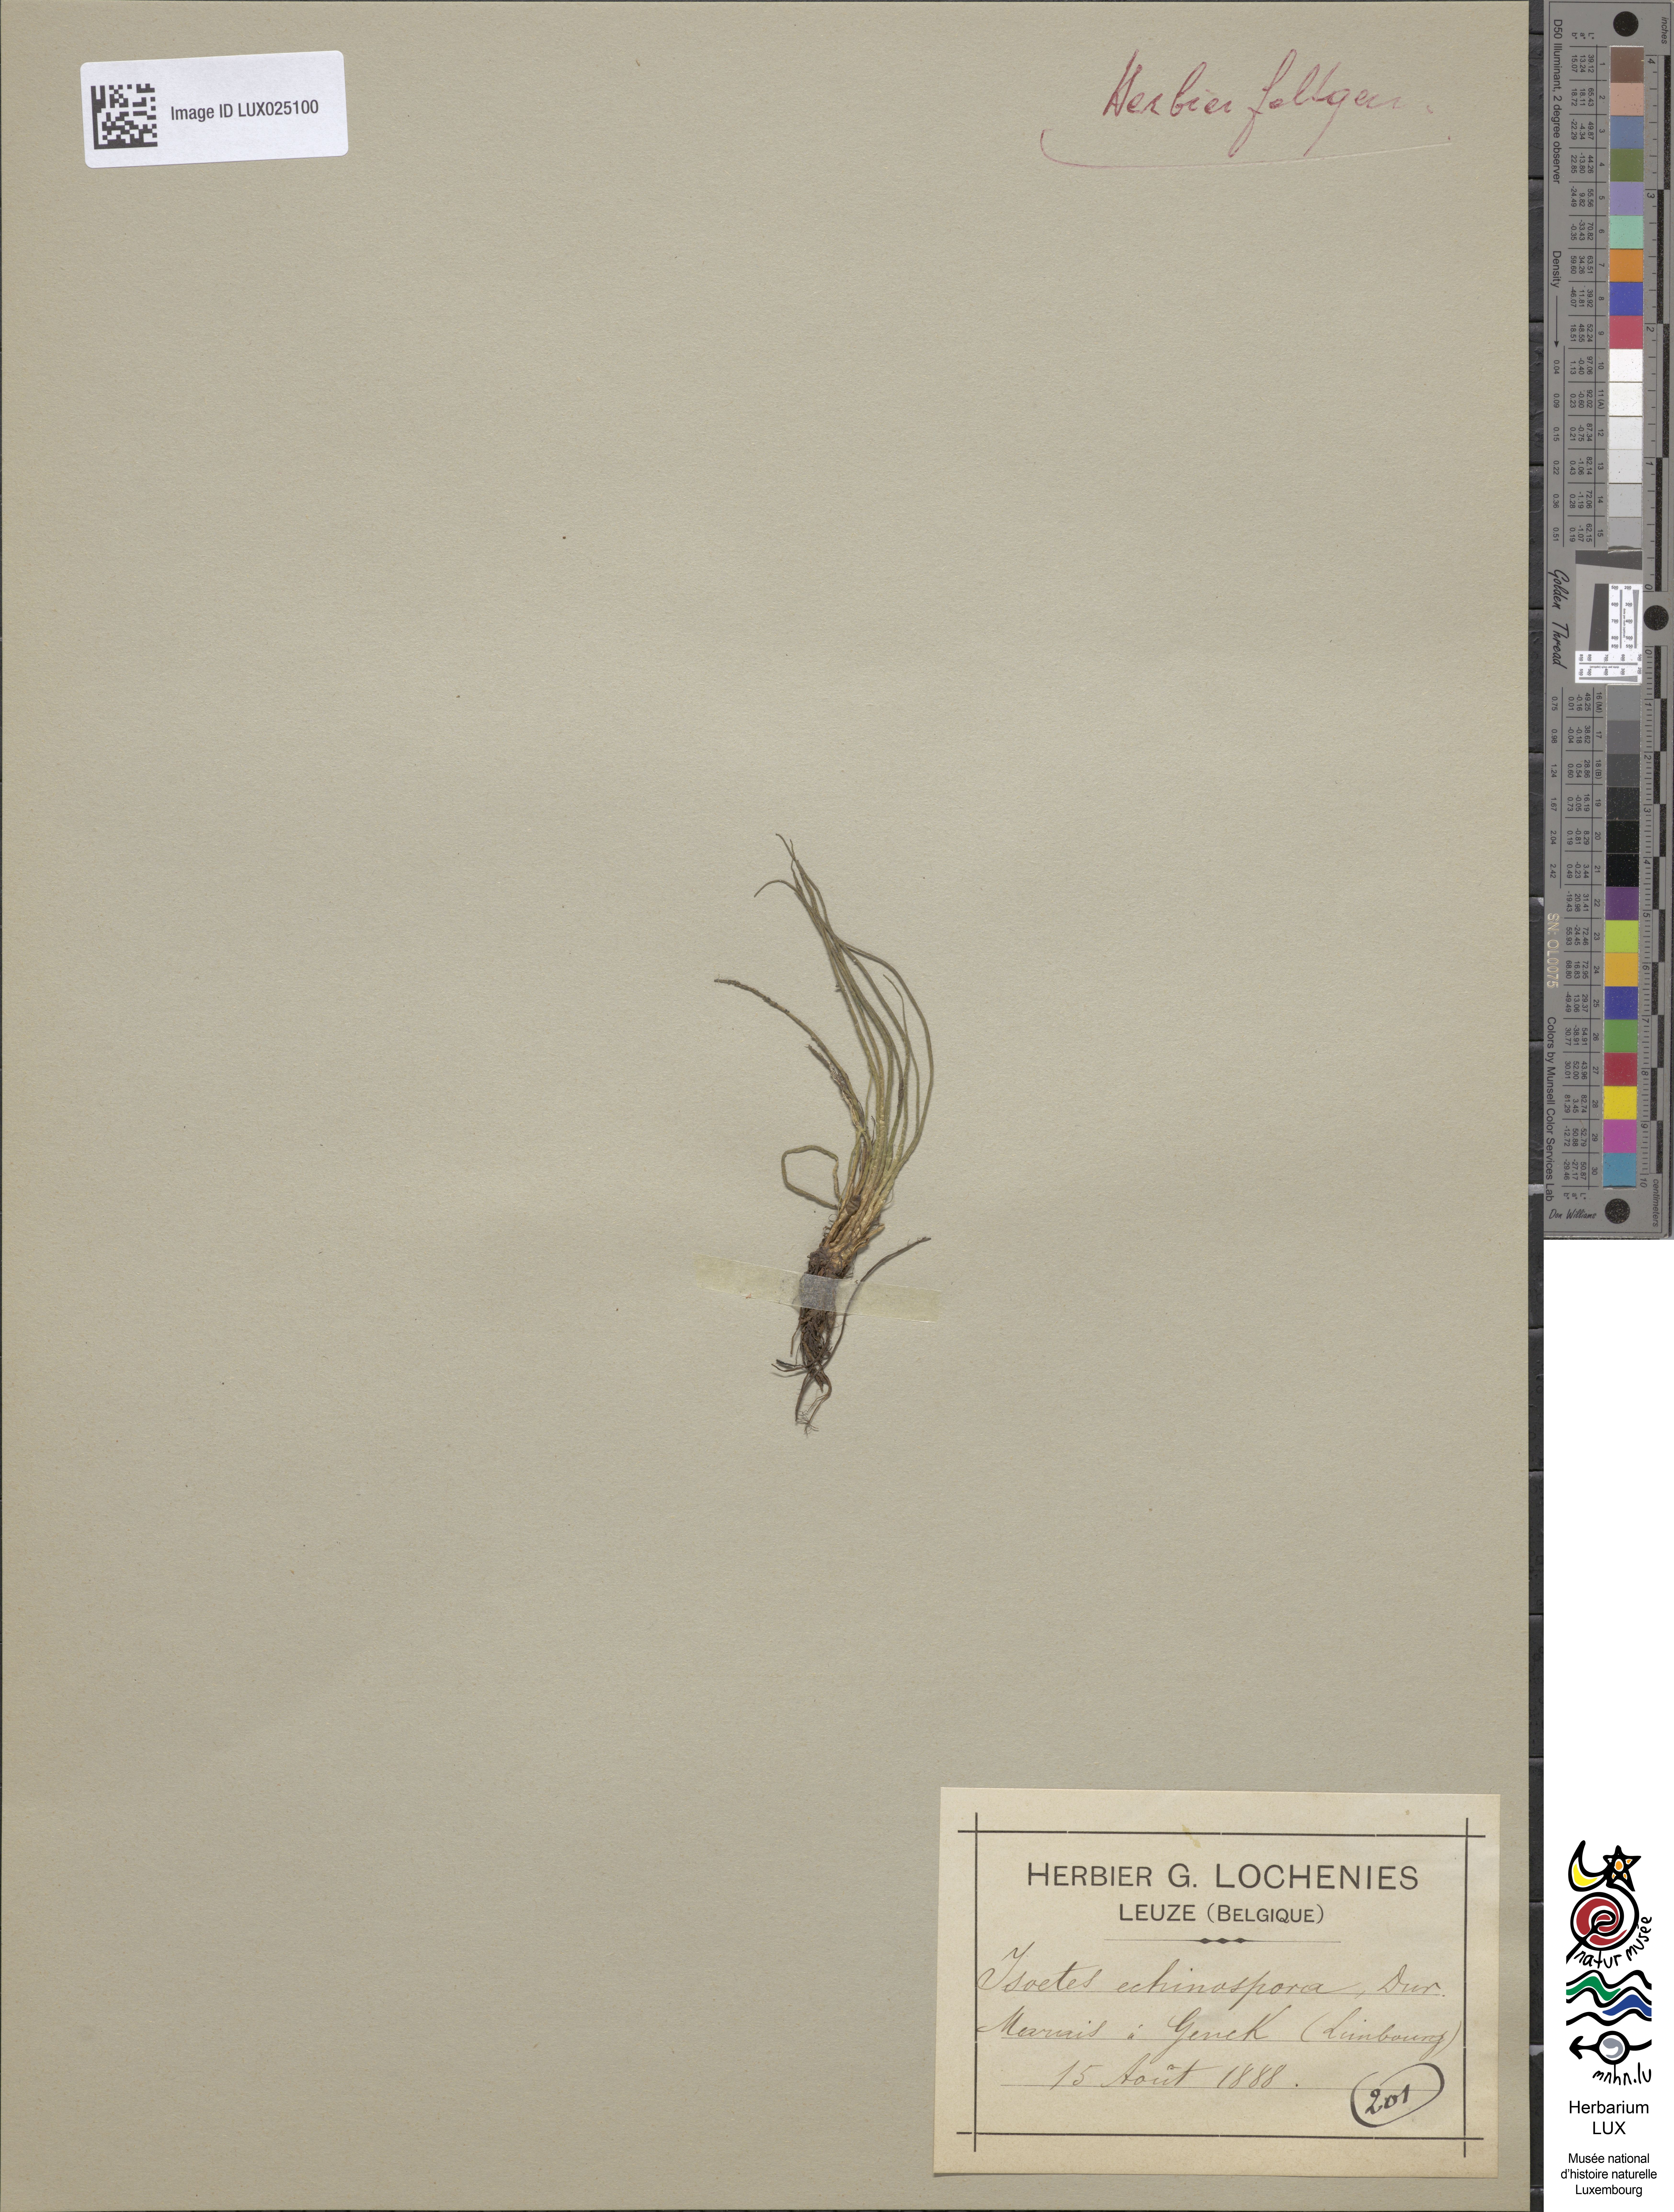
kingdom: Plantae
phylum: Tracheophyta
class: Lycopodiopsida
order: Isoetales
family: Isoetaceae
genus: Isoetes
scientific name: Isoetes echinospora
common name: Spring quillwort
